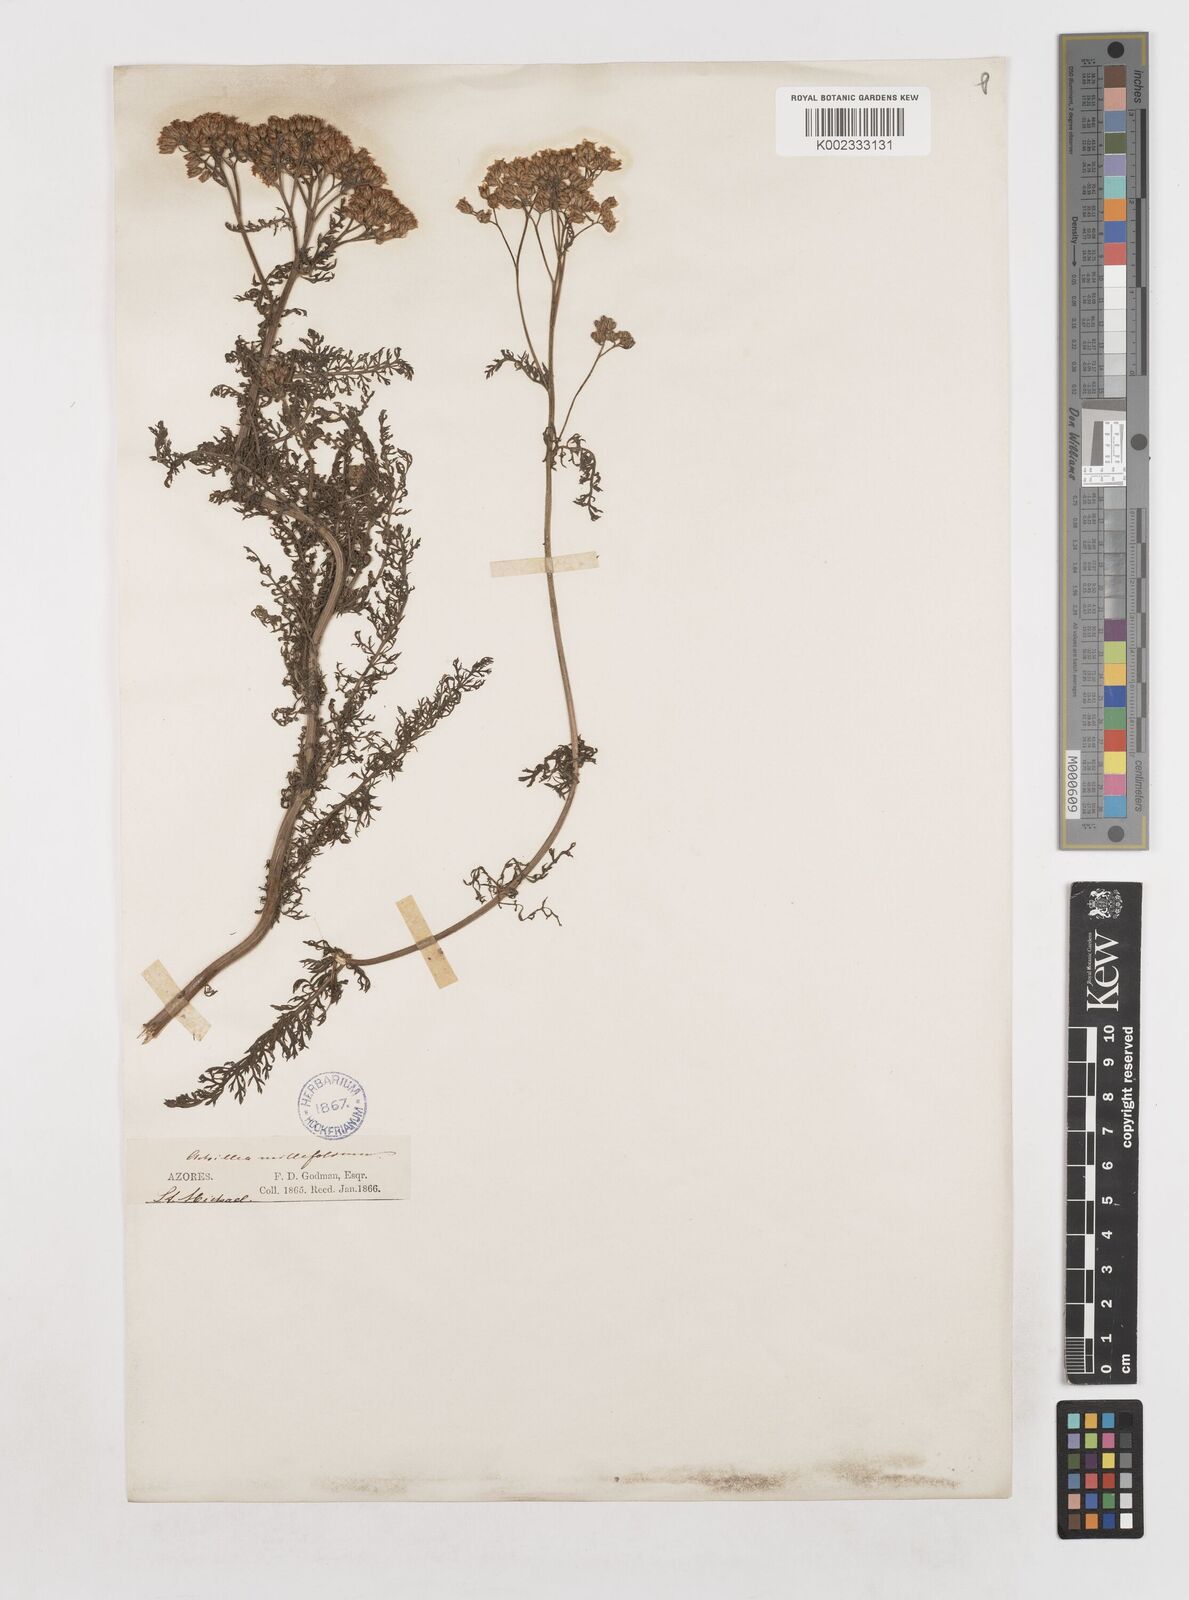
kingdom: Plantae
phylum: Tracheophyta
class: Magnoliopsida
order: Asterales
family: Asteraceae
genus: Achillea
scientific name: Achillea millefolium
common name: Yarrow
